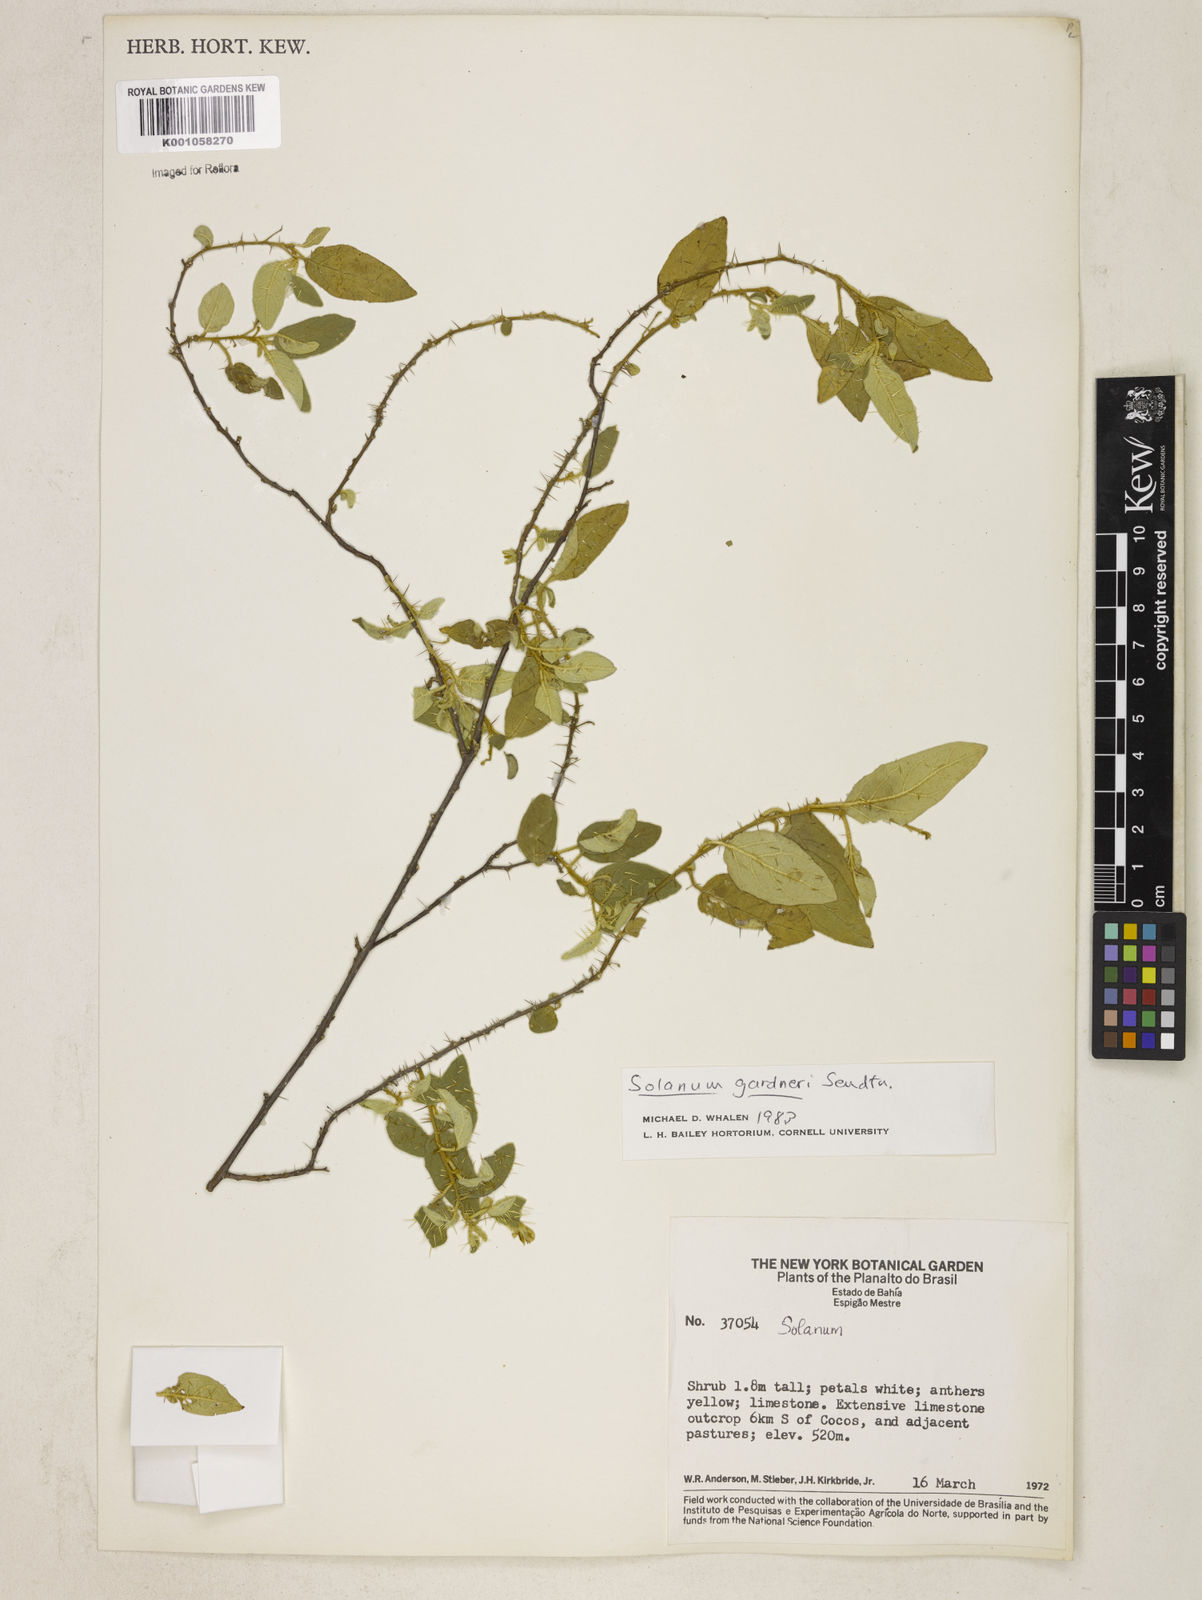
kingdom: Plantae
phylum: Tracheophyta
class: Magnoliopsida
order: Solanales
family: Solanaceae
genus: Solanum
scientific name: Solanum gardneri
